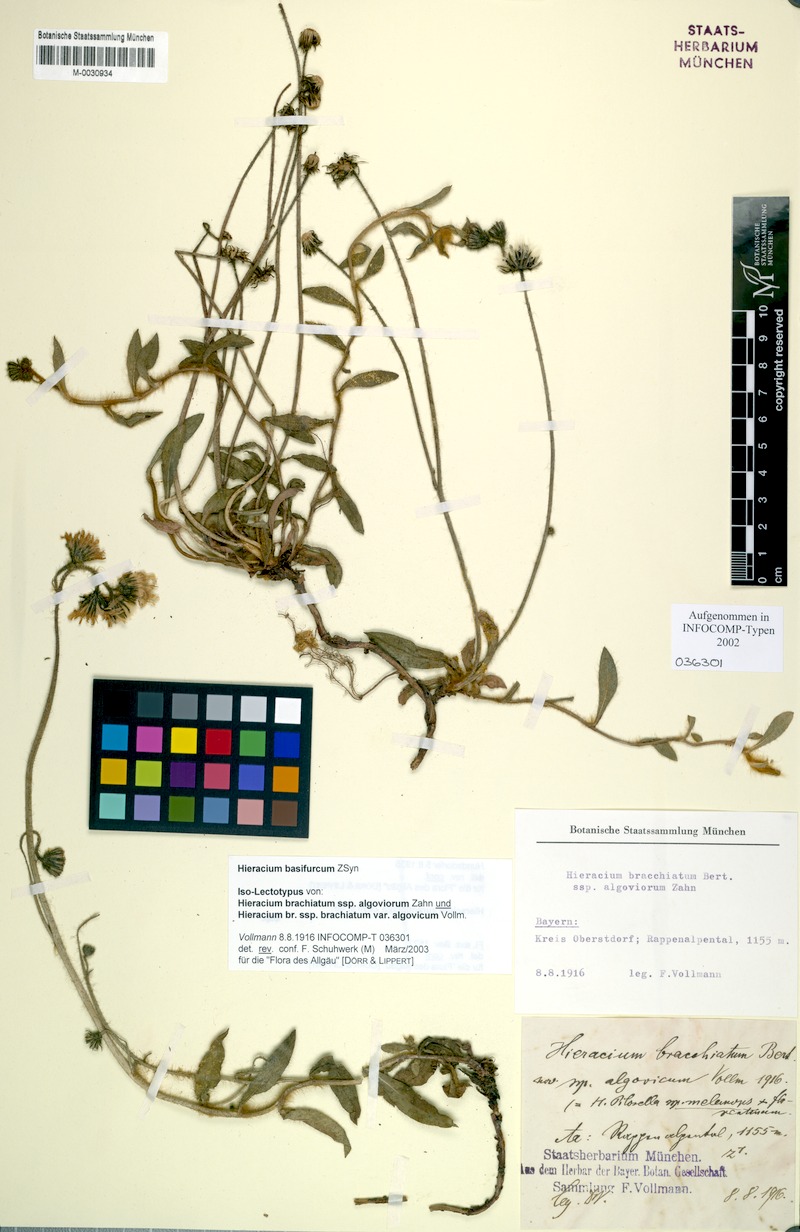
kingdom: Plantae
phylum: Tracheophyta
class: Magnoliopsida
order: Asterales
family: Asteraceae
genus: Pilosella
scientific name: Pilosella basifurca
